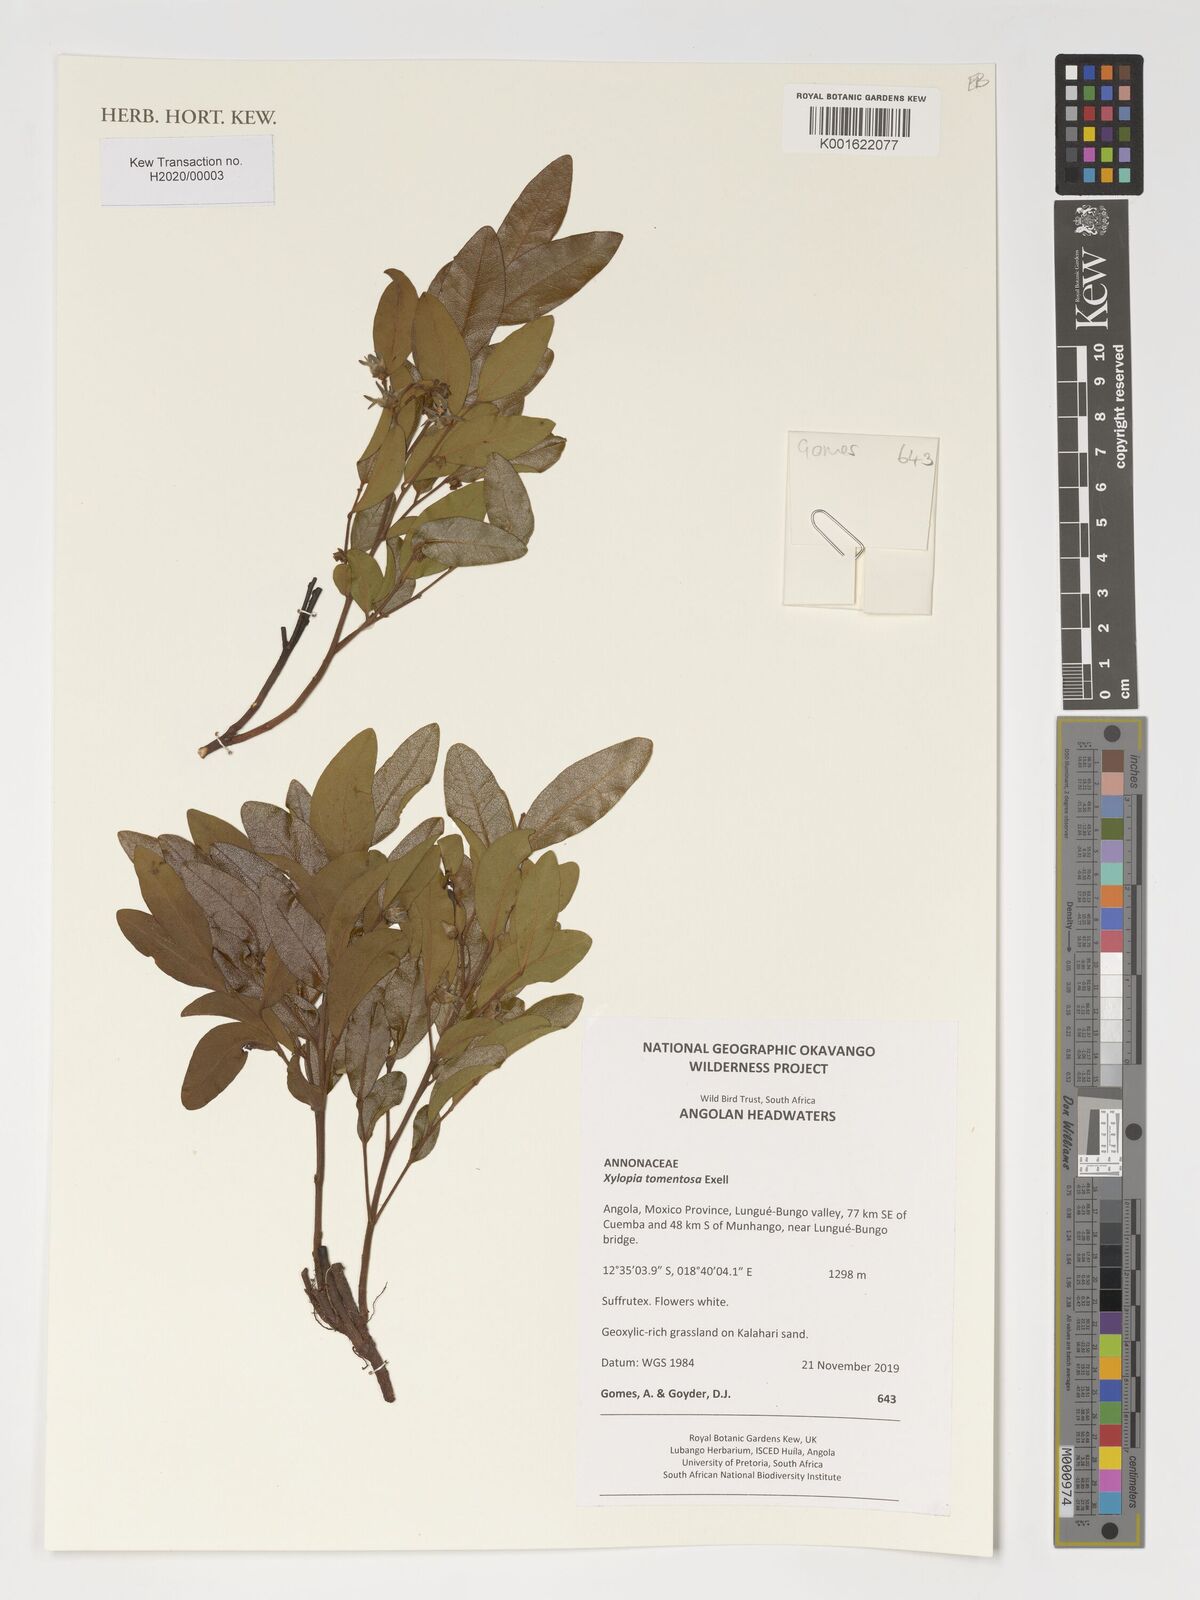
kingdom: Plantae
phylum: Tracheophyta
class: Magnoliopsida
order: Magnoliales
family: Annonaceae
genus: Xylopia
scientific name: Xylopia tomentosa
